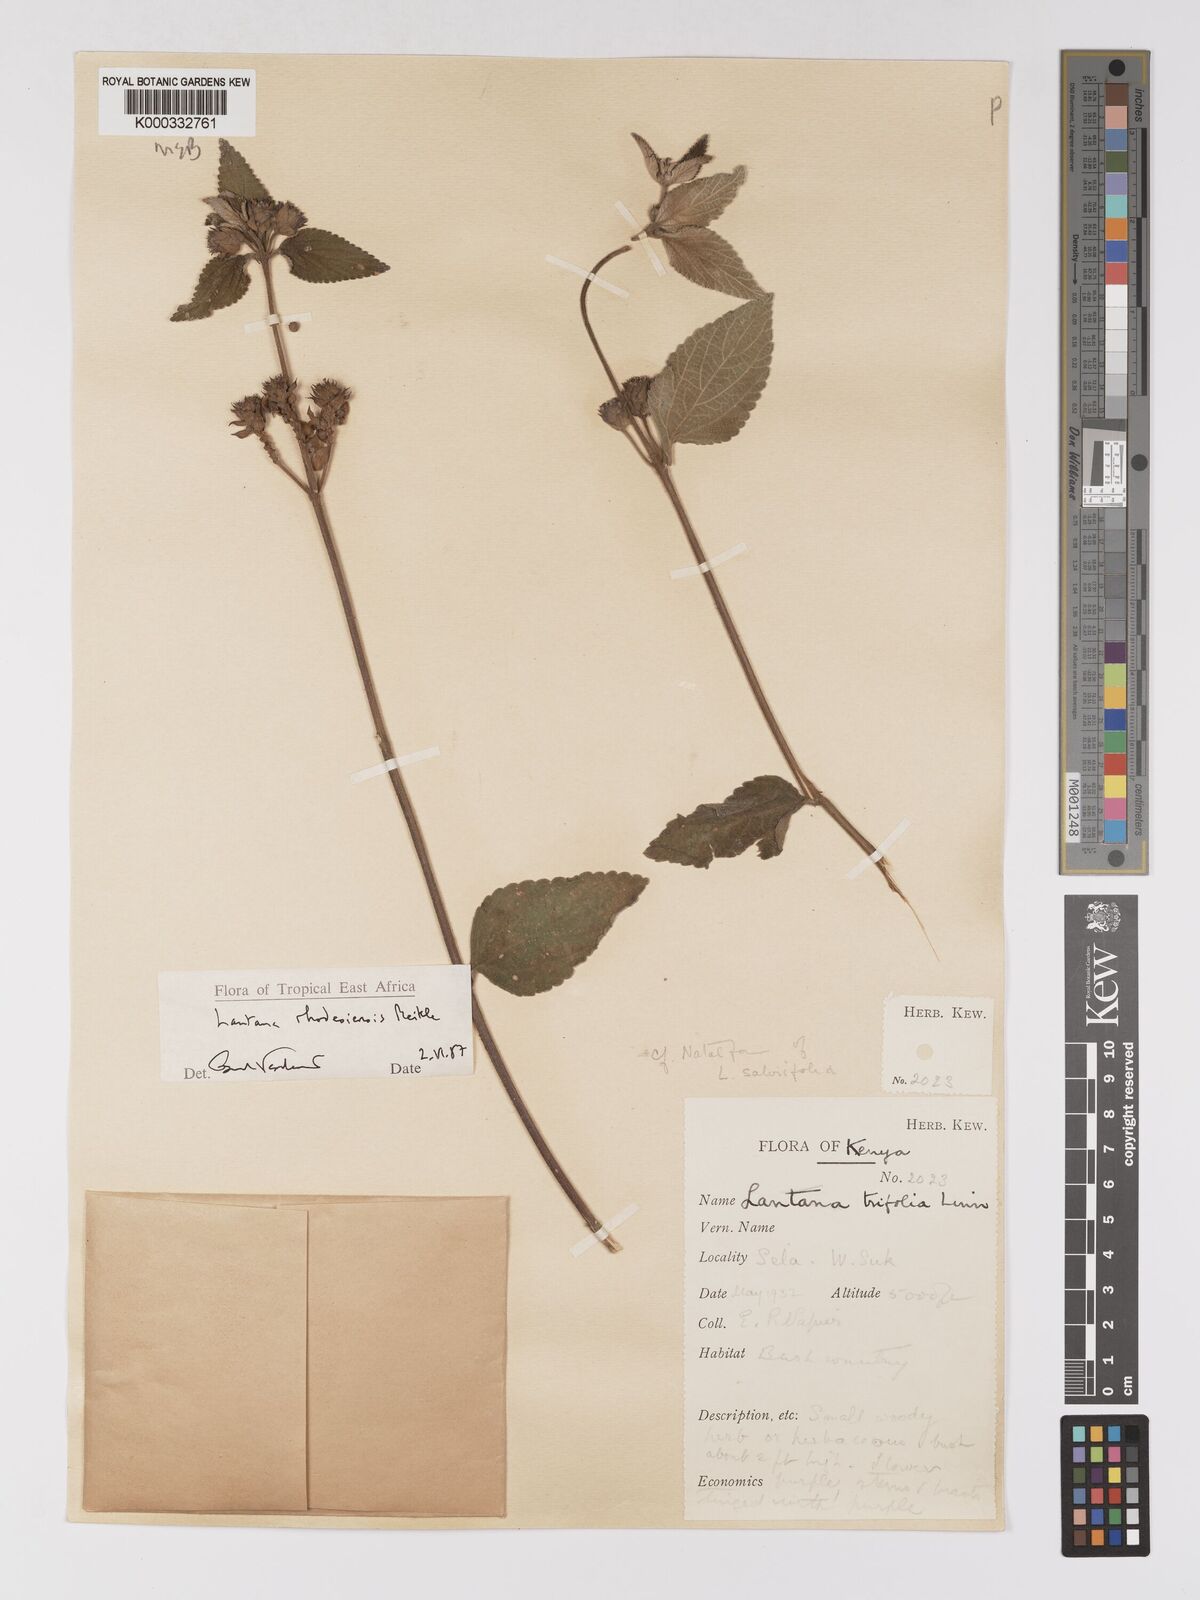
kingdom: Plantae
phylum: Tracheophyta
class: Magnoliopsida
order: Lamiales
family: Verbenaceae
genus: Lantana
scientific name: Lantana ukambensis
